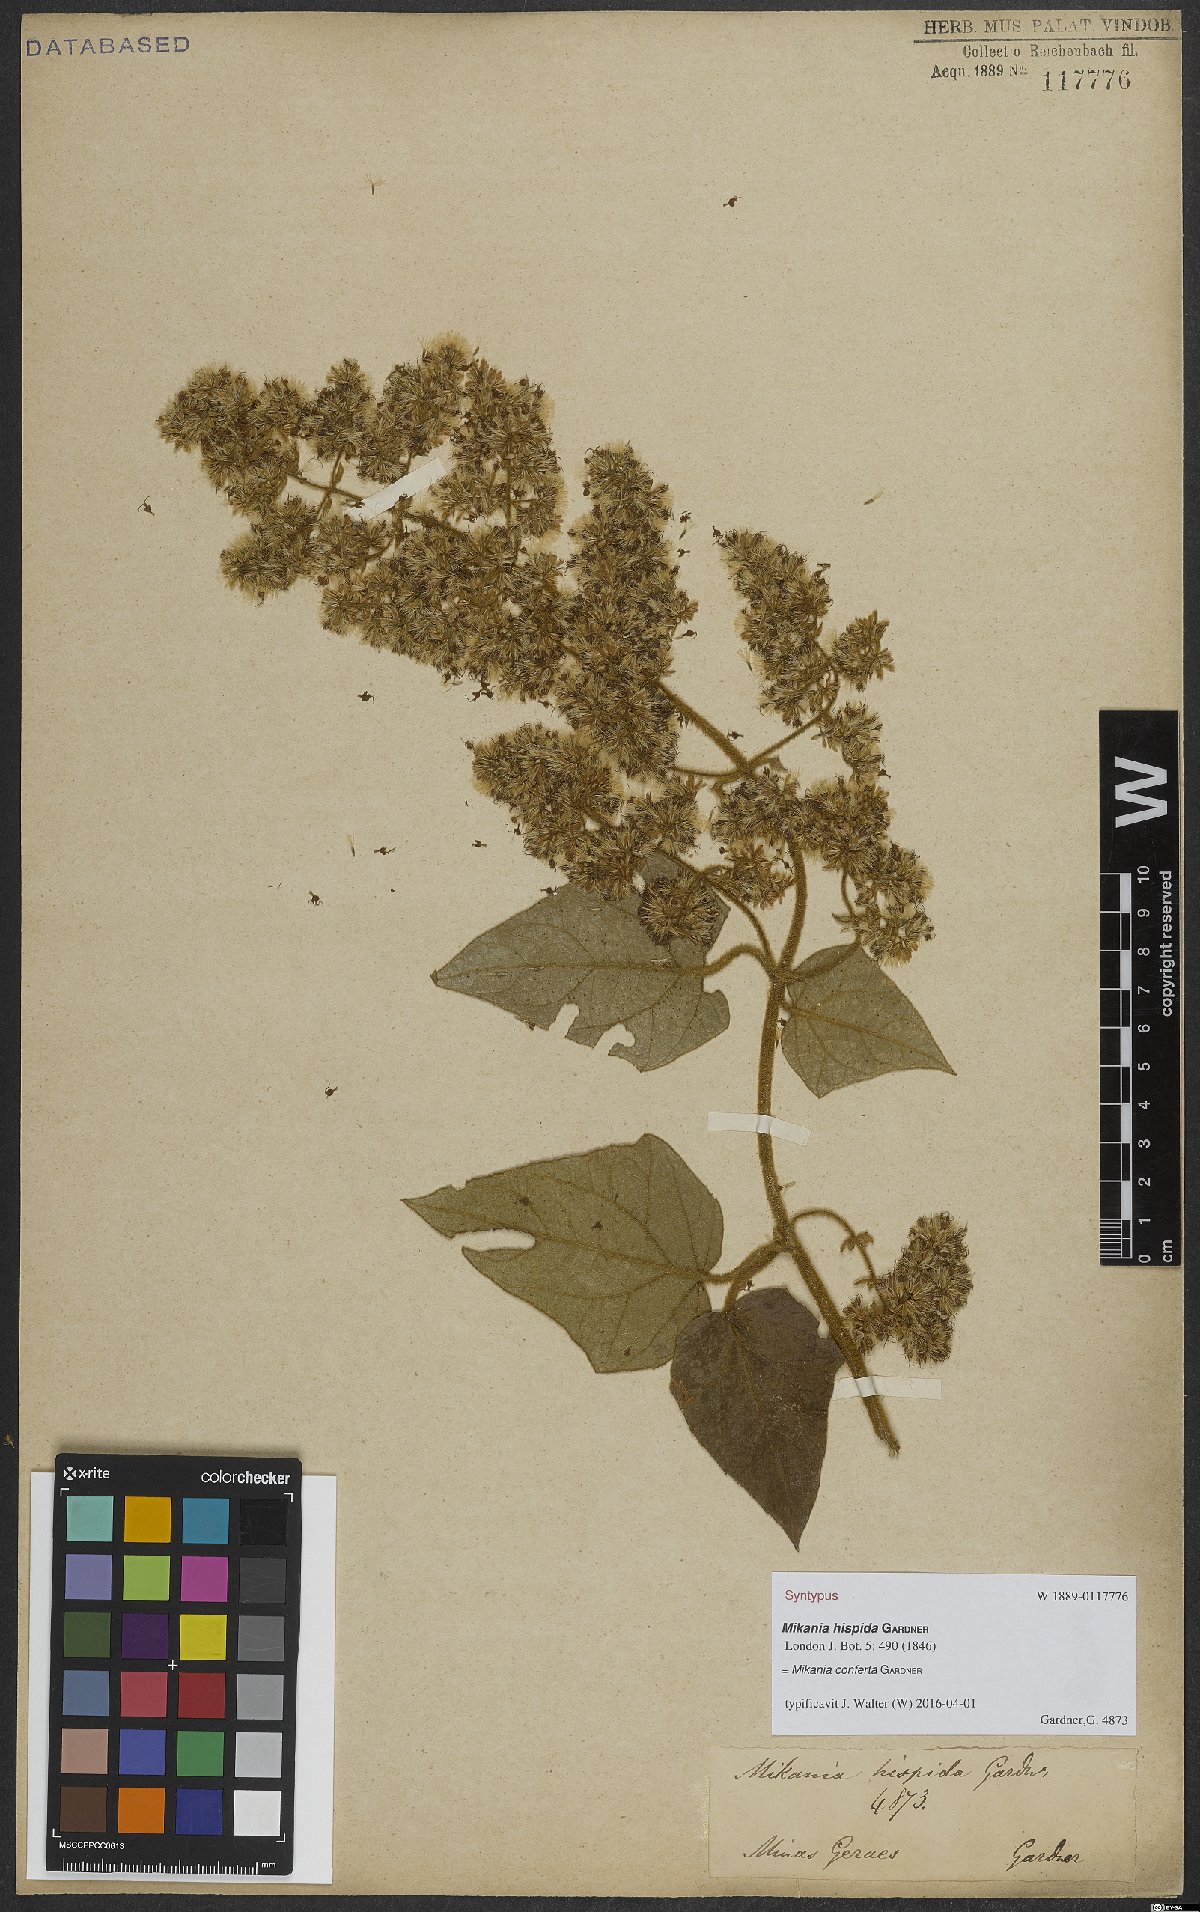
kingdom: Plantae
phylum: Tracheophyta
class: Magnoliopsida
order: Asterales
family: Asteraceae
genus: Mikania
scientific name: Mikania conferta
